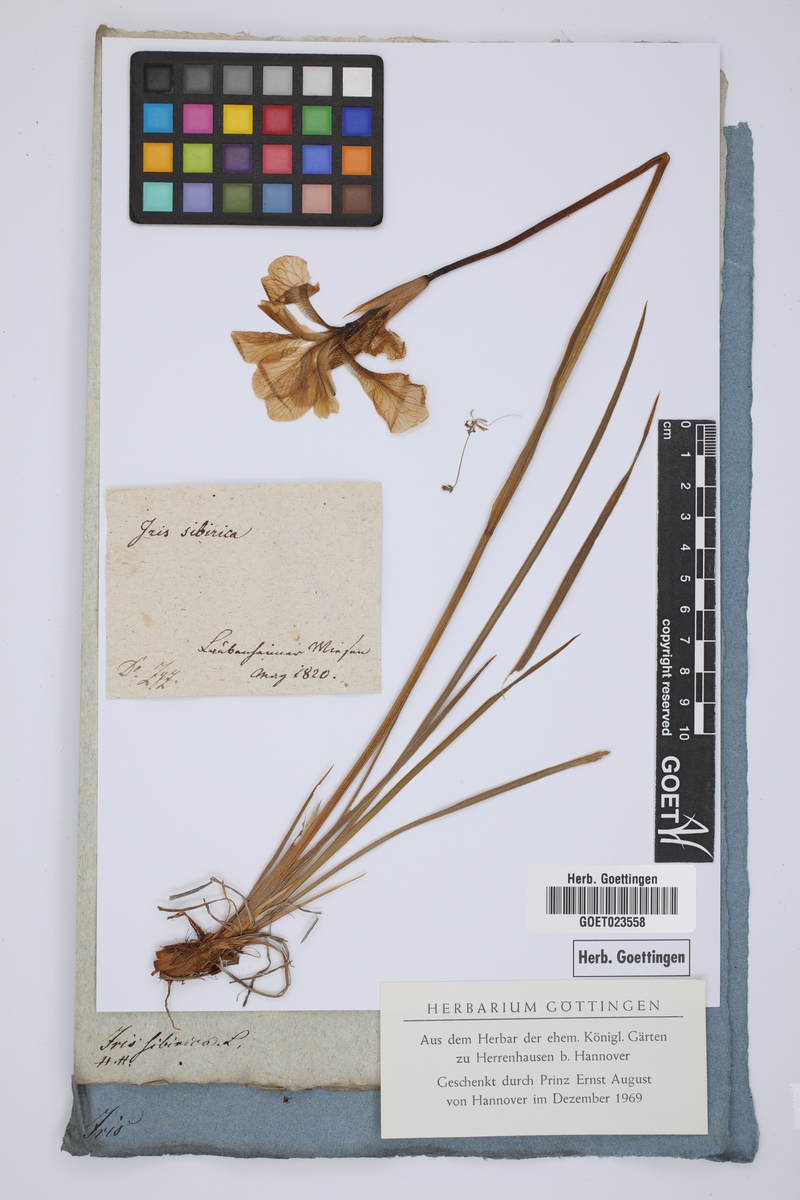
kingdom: Plantae
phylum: Tracheophyta
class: Liliopsida
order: Asparagales
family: Iridaceae
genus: Iris
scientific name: Iris sibirica
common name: Siberian iris
